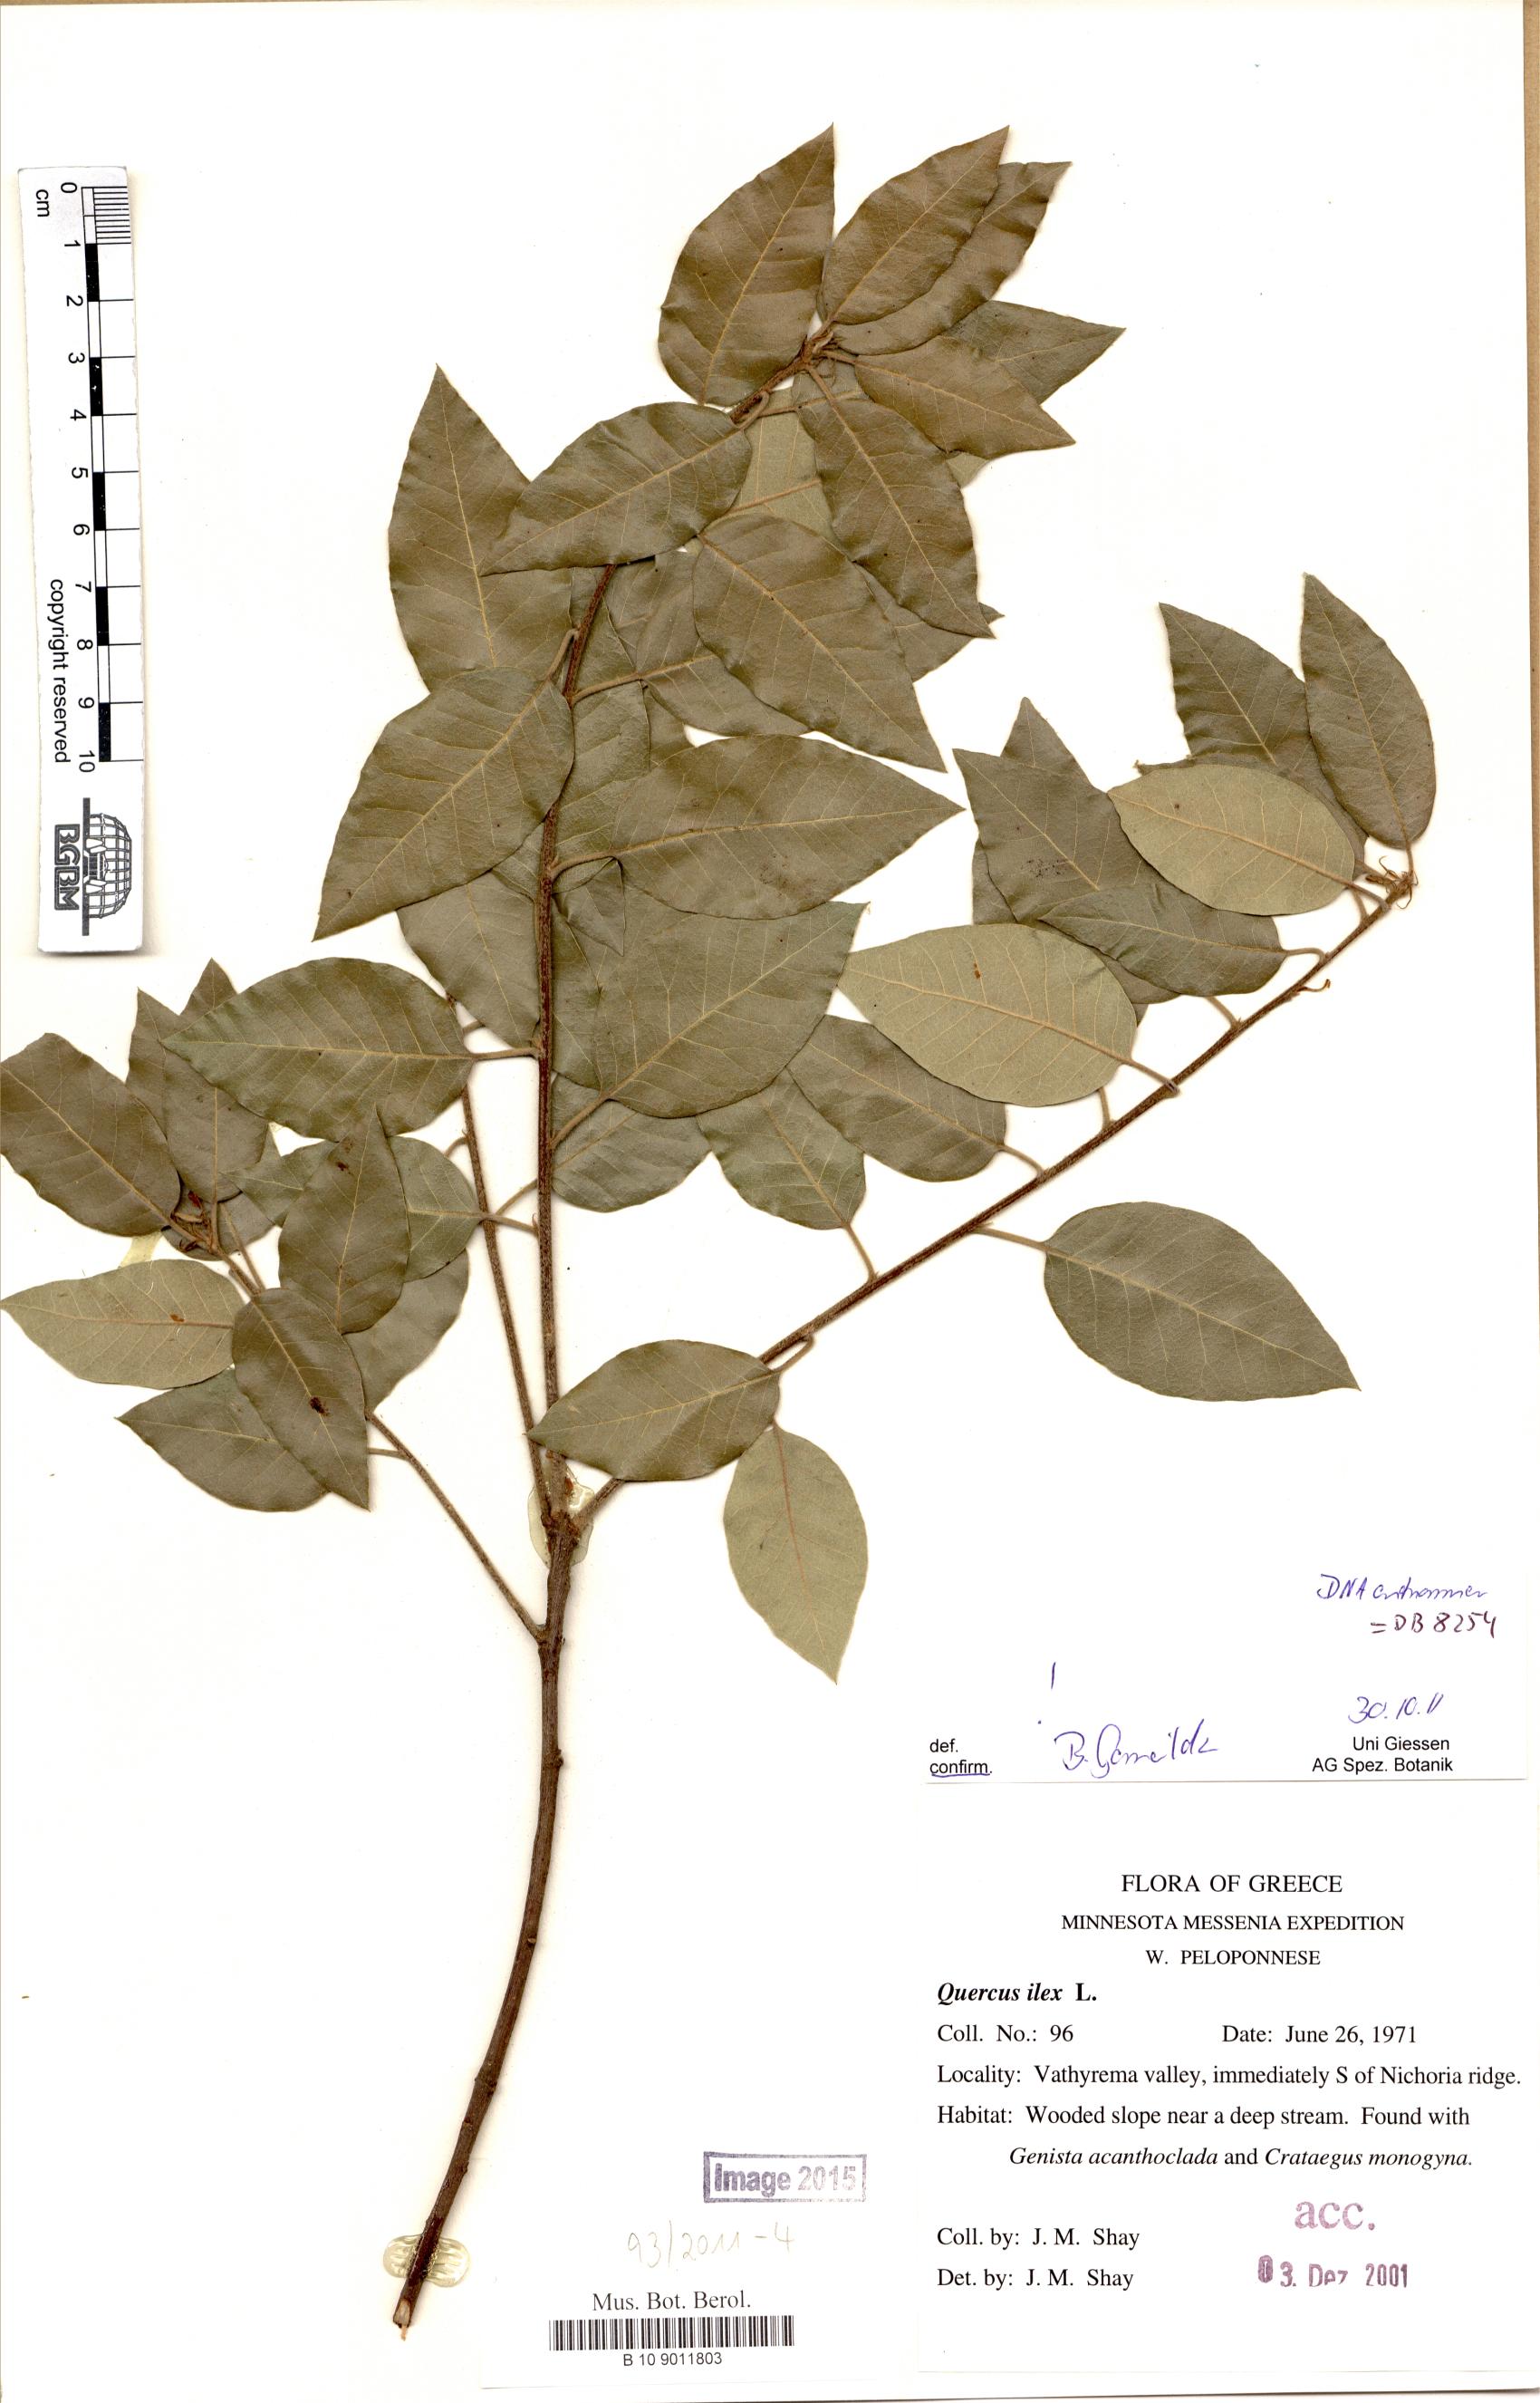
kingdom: Plantae
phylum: Tracheophyta
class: Magnoliopsida
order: Fagales
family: Fagaceae
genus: Quercus
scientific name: Quercus ilex
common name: Evergreen oak
